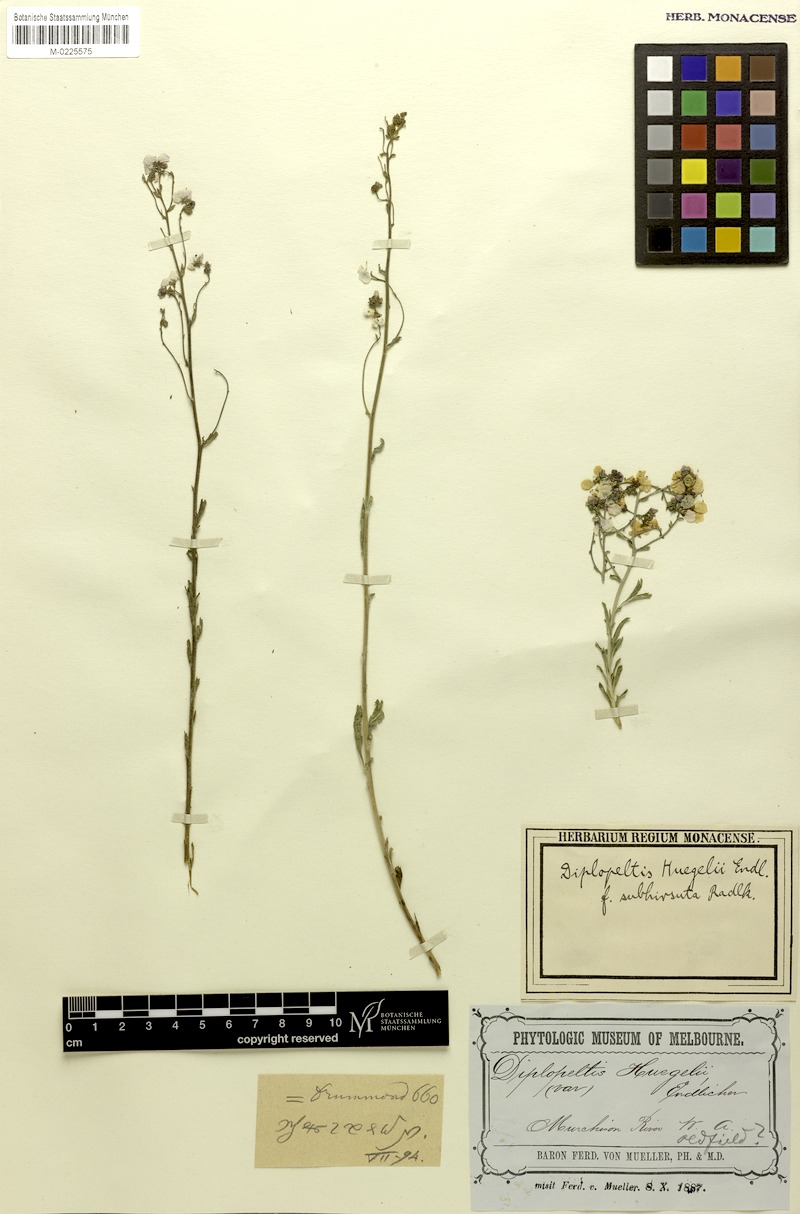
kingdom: Plantae
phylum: Tracheophyta
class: Magnoliopsida
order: Sapindales
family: Sapindaceae
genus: Diplopeltis
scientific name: Diplopeltis huegelii
